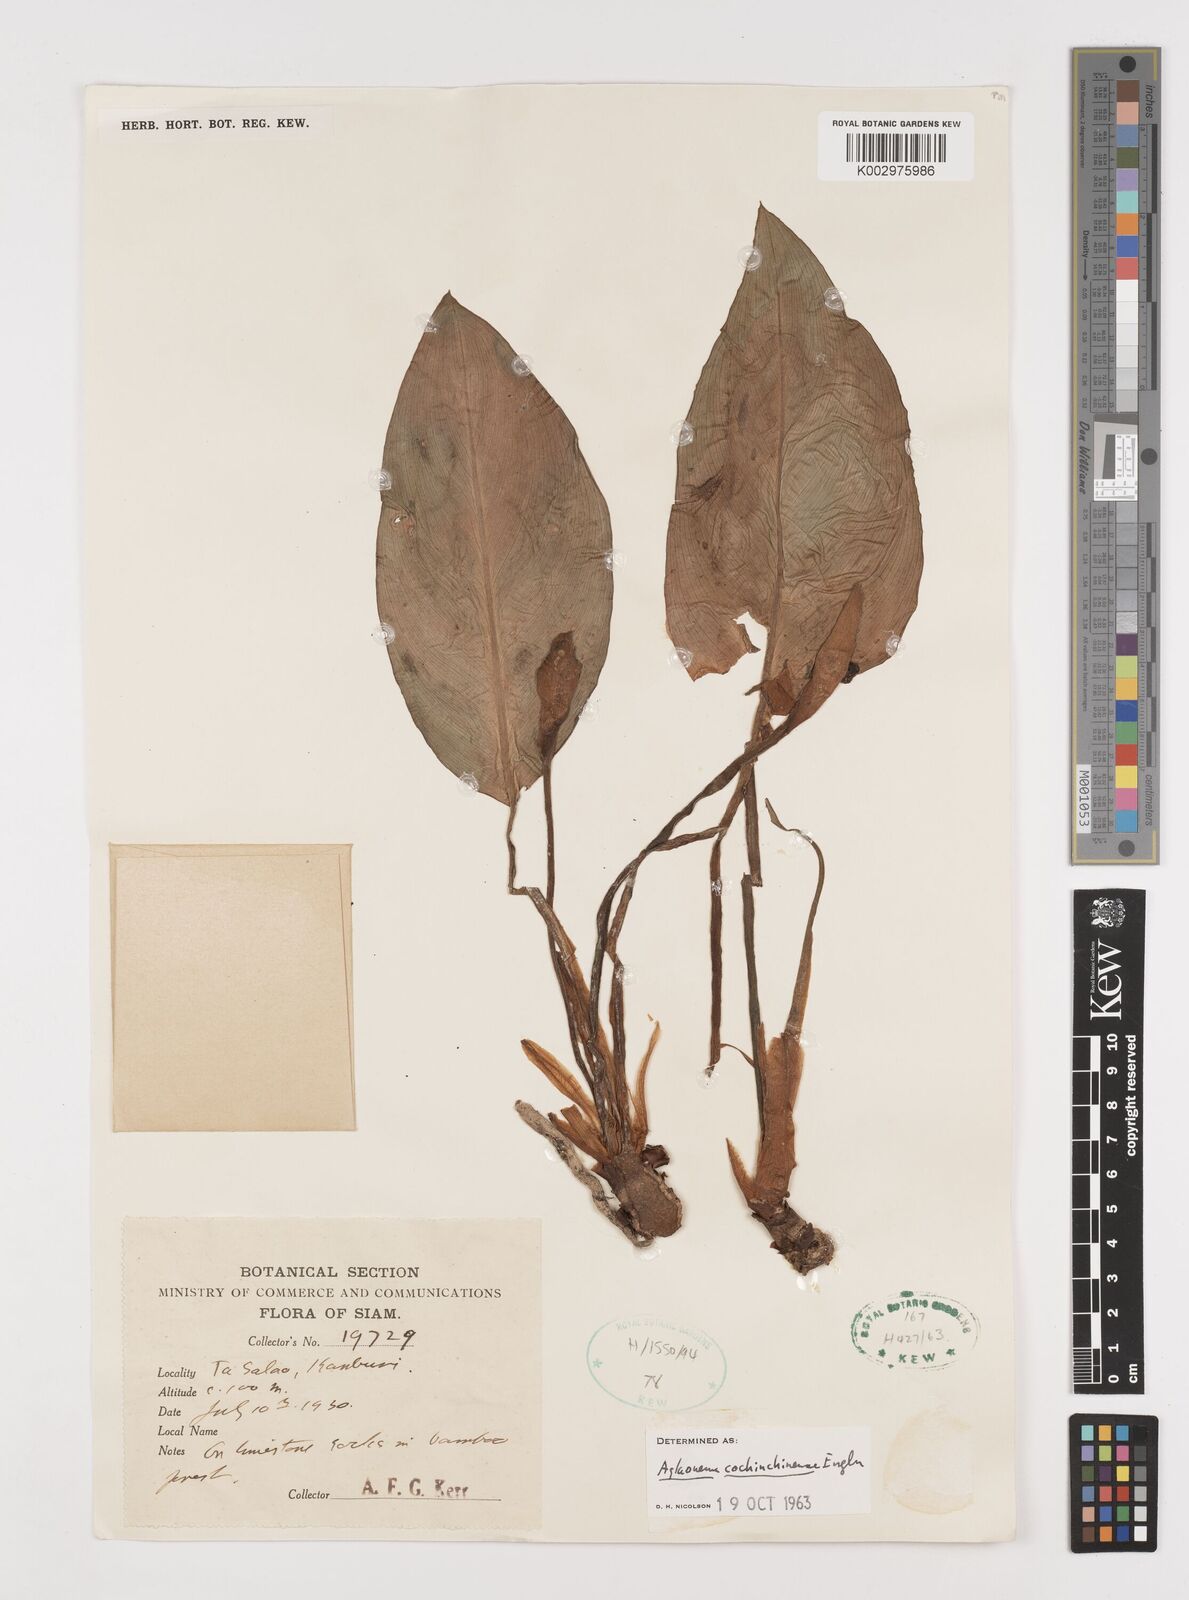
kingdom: Plantae
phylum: Tracheophyta
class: Liliopsida
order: Alismatales
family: Araceae
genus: Aglaonema
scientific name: Aglaonema cochinchinense
